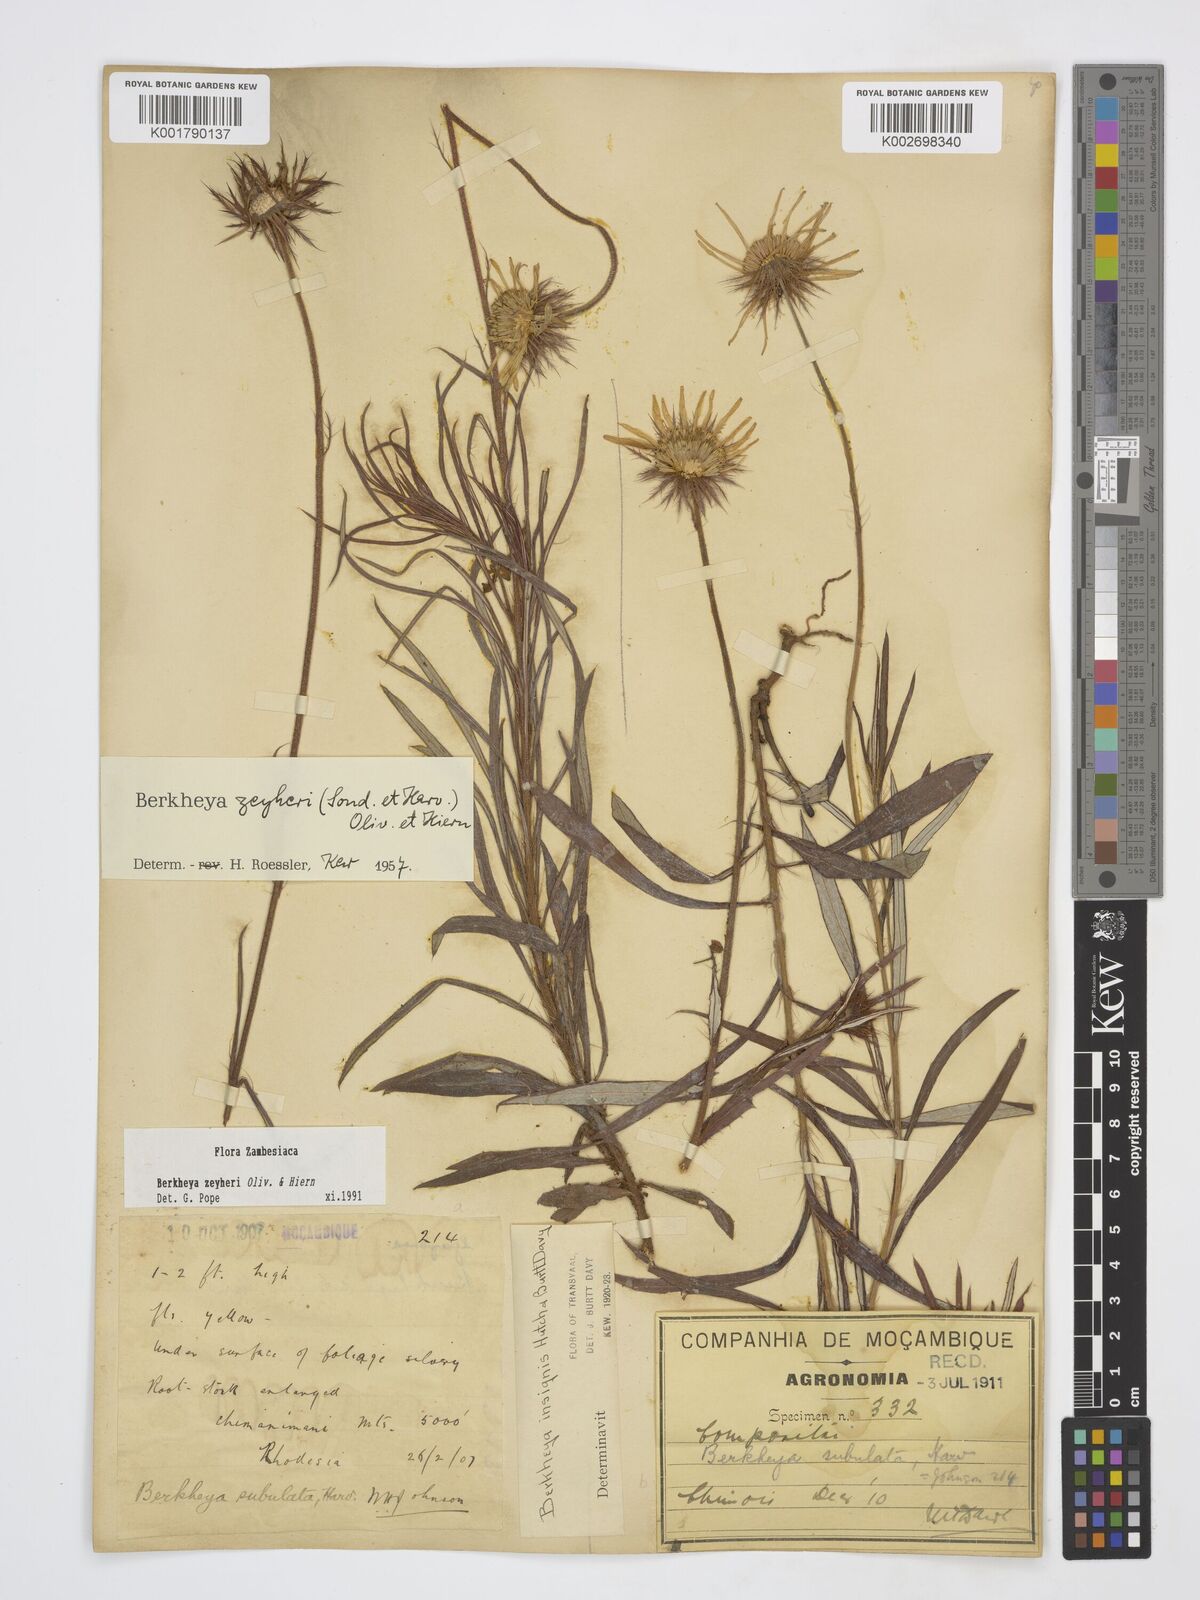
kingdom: Plantae
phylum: Tracheophyta
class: Magnoliopsida
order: Asterales
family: Asteraceae
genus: Berkheya
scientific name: Berkheya zeyheri
